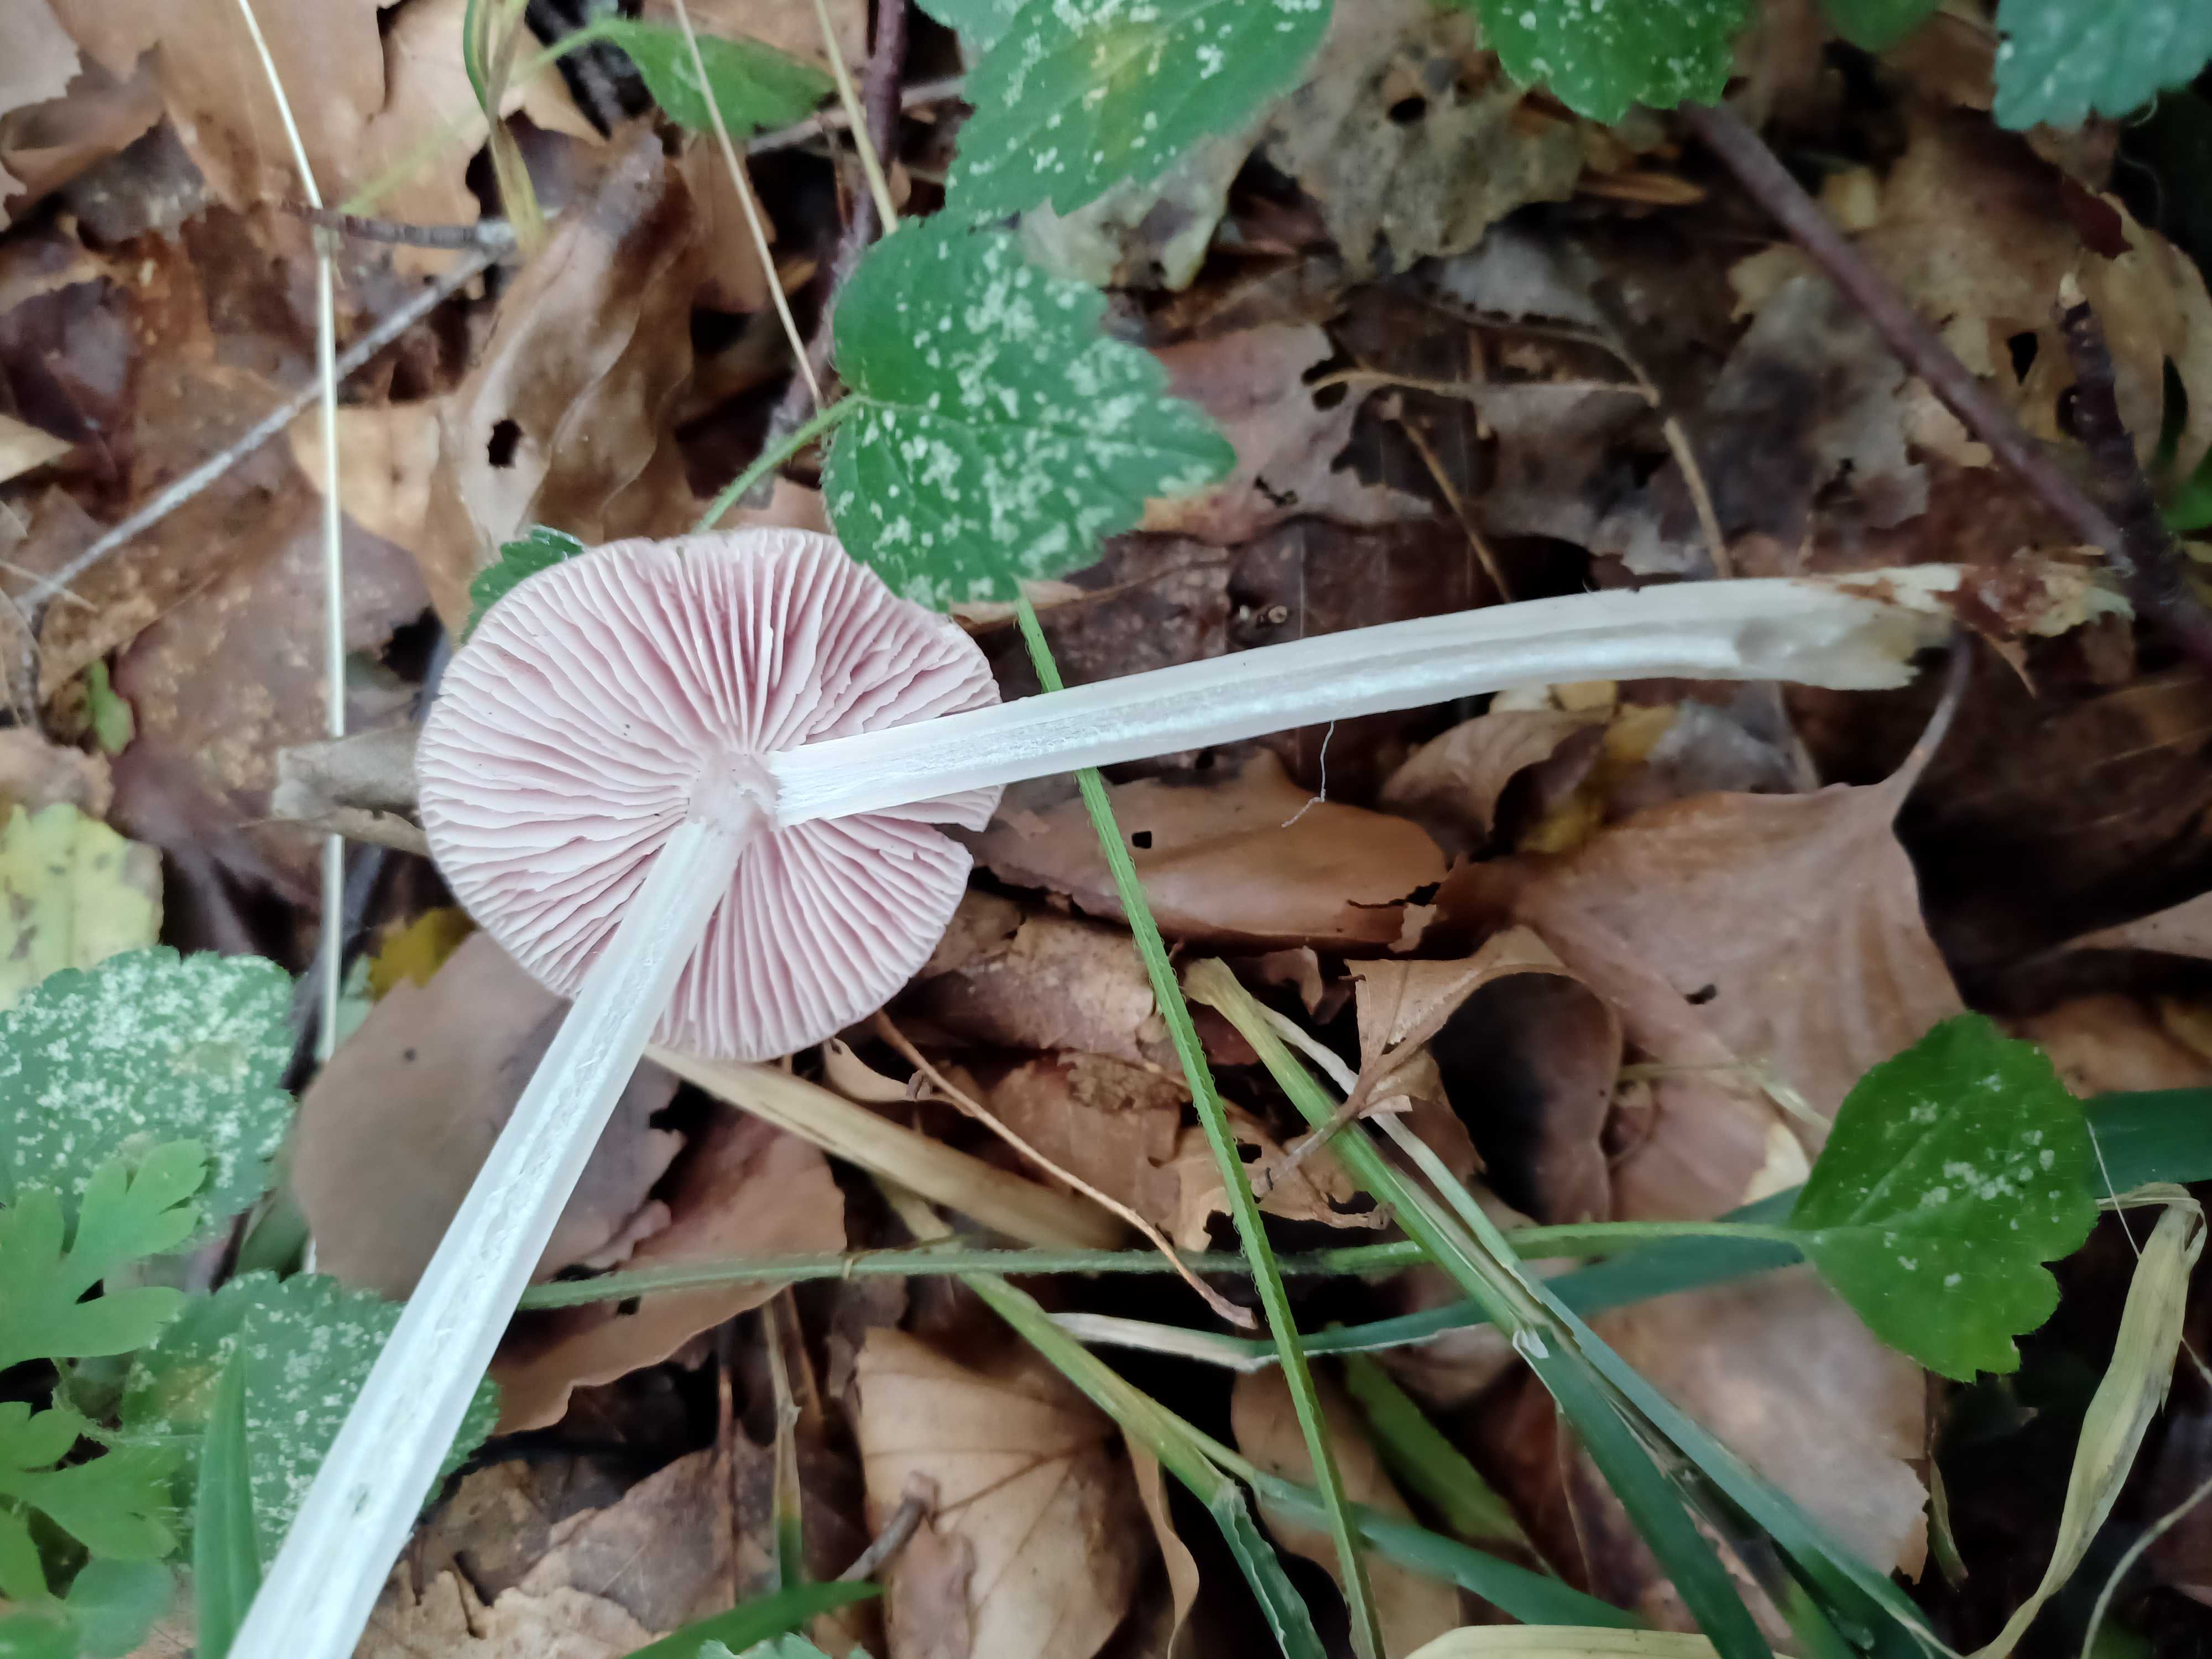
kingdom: Fungi
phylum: Basidiomycota
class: Agaricomycetes
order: Agaricales
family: Mycenaceae
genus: Mycena
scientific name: Mycena rosea
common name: rosa huesvamp
